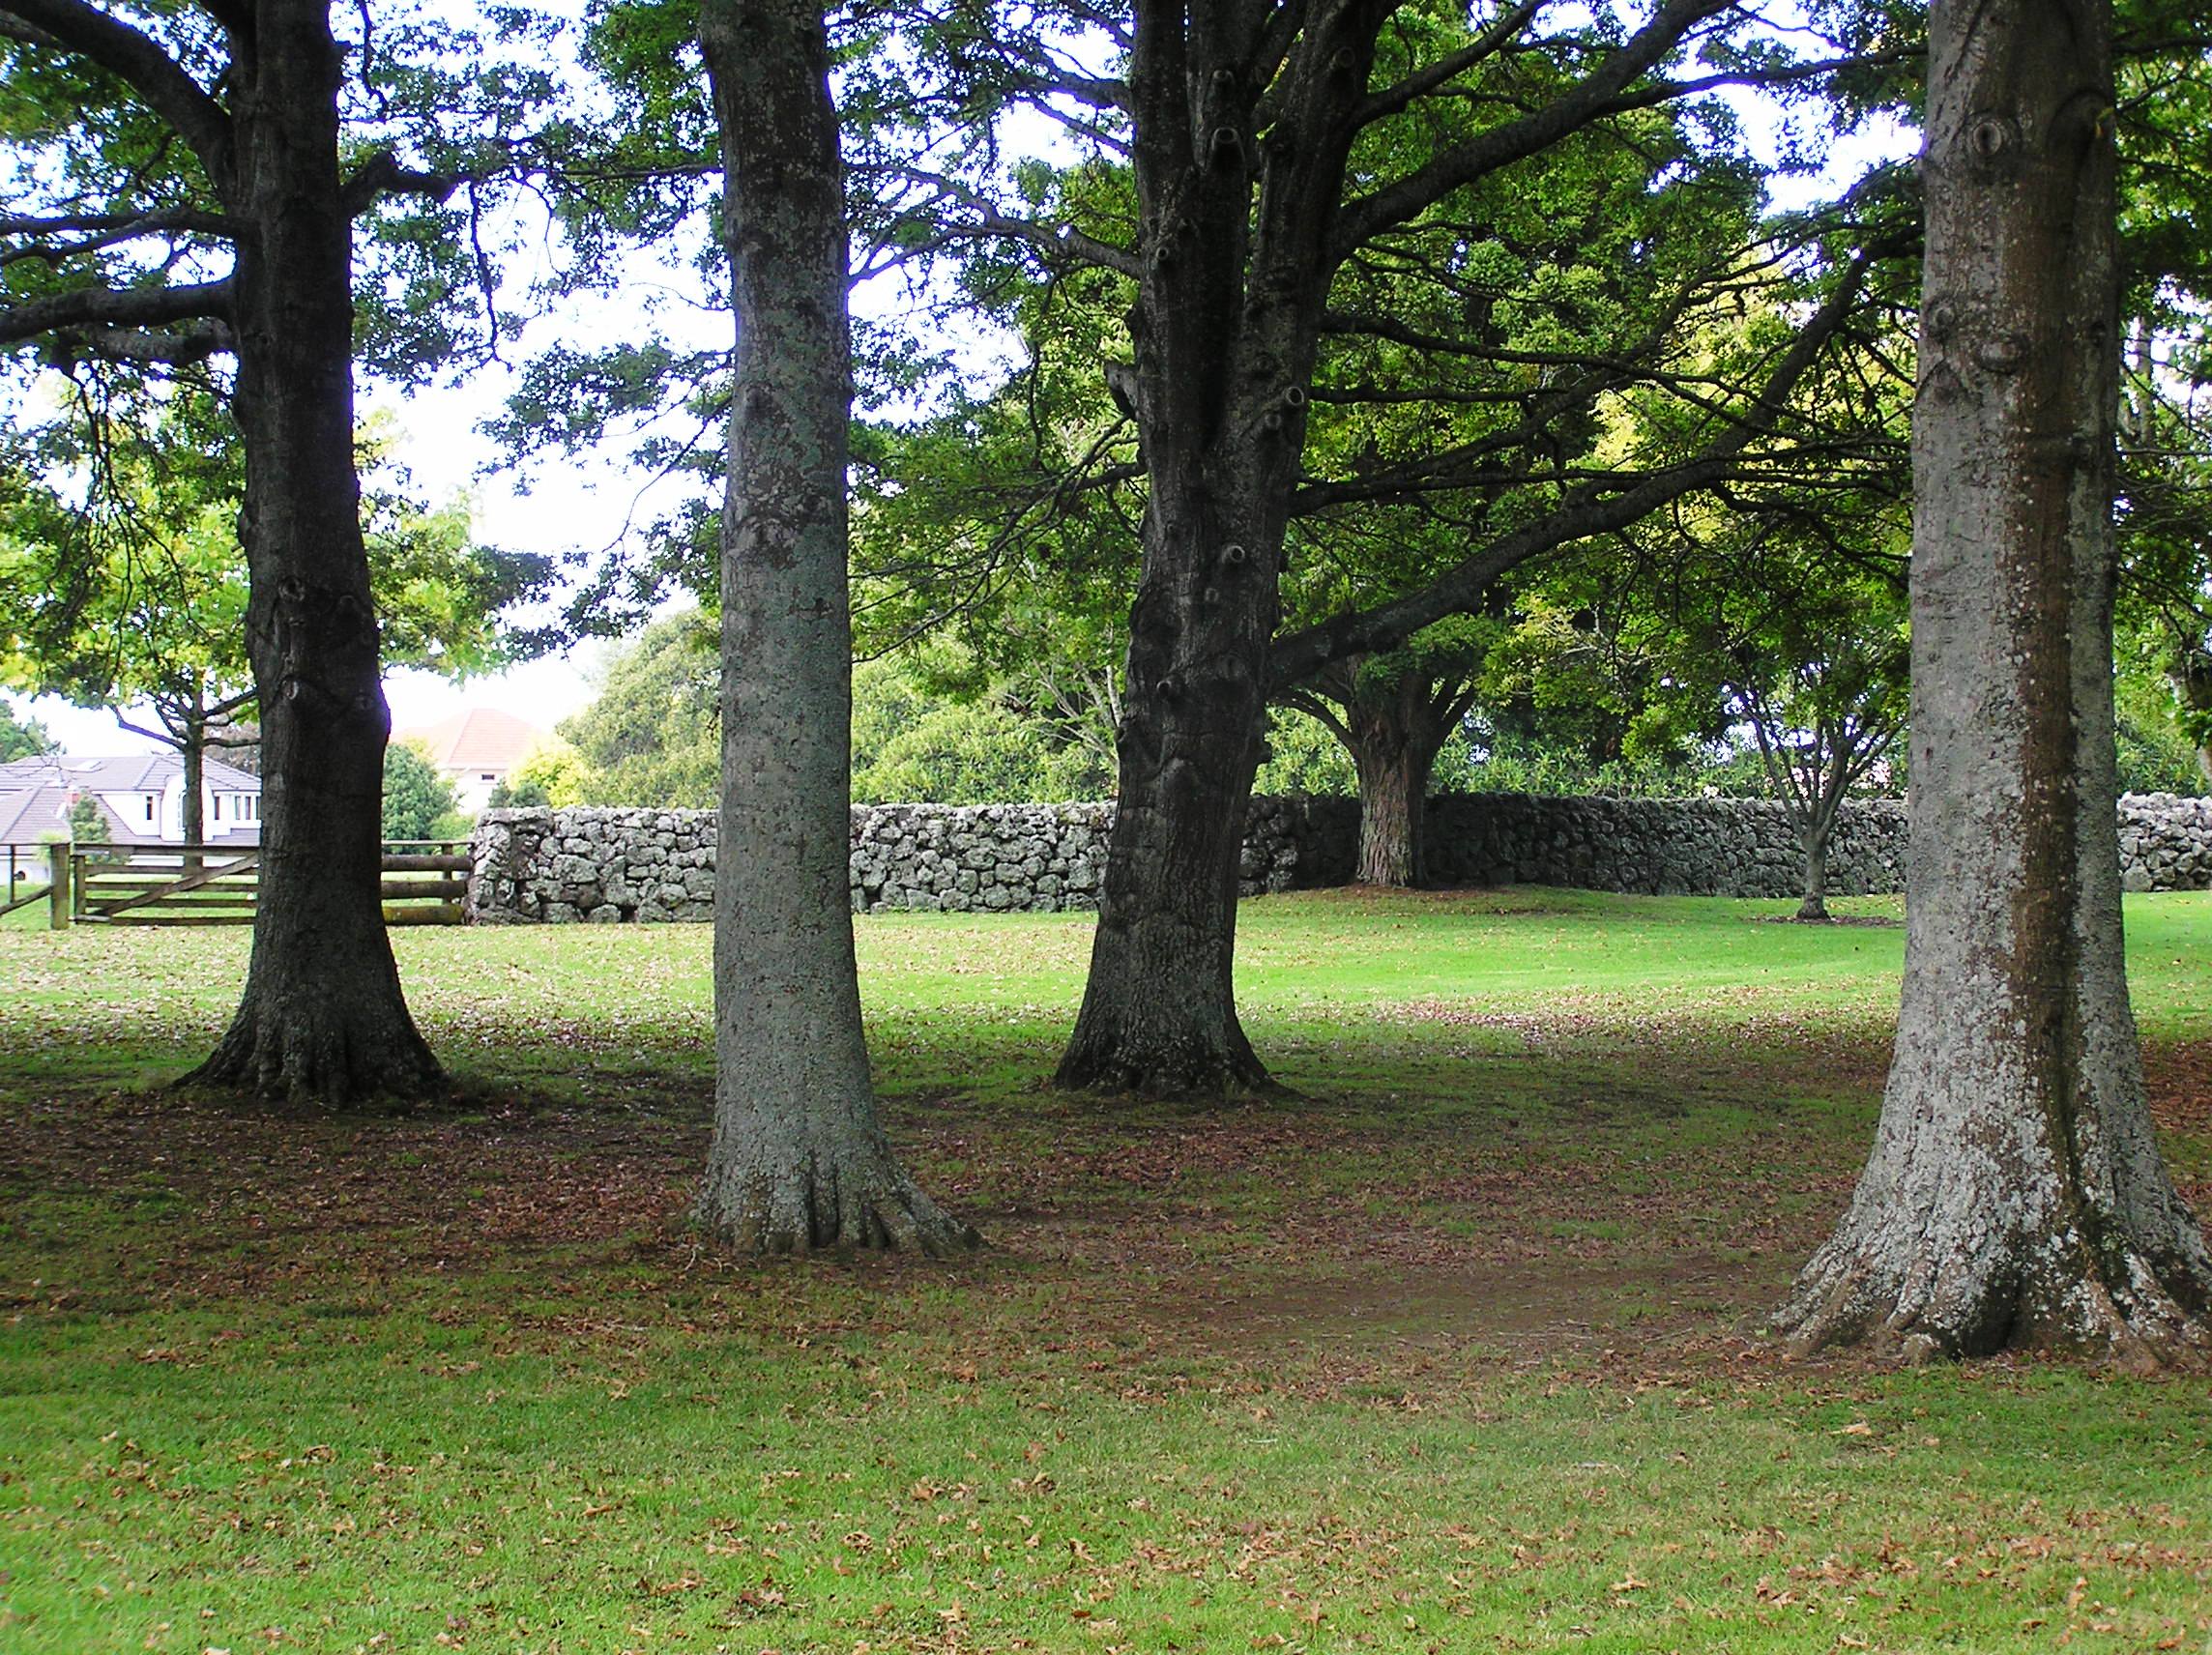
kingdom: Plantae
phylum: Tracheophyta
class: Magnoliopsida
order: Fagales
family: Fagaceae
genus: Quercus
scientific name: Quercus petraea
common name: Sessile oak
